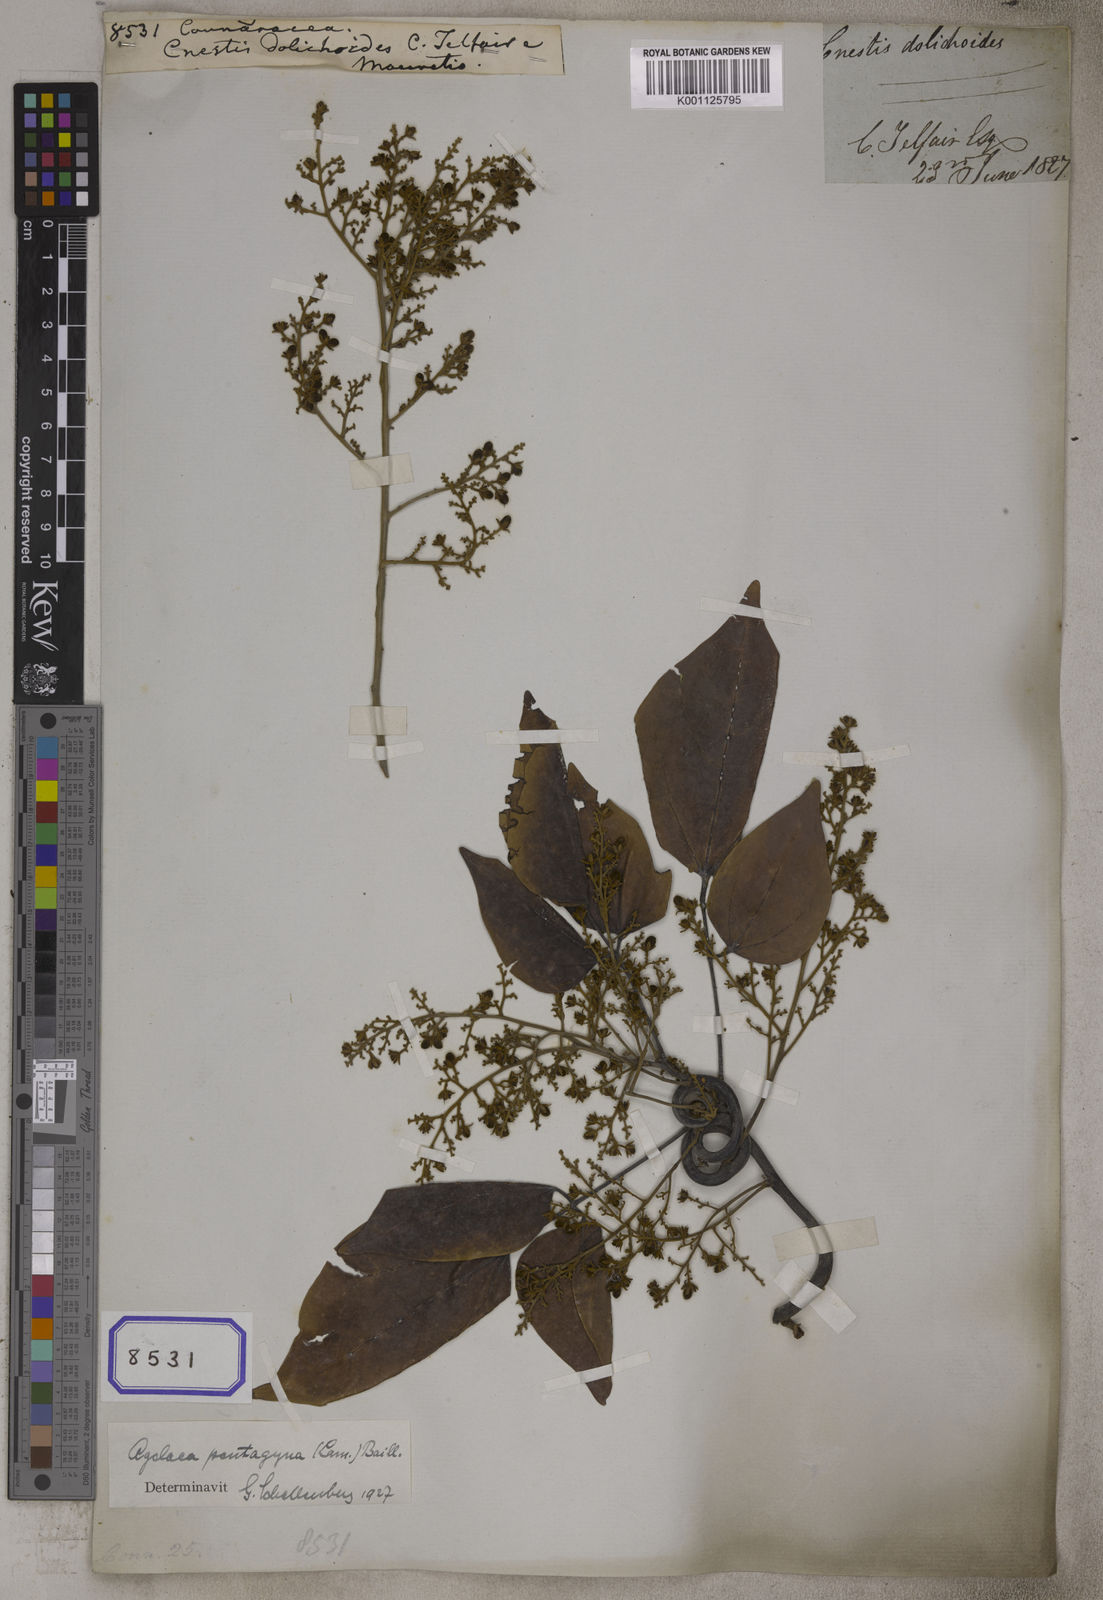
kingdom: Plantae
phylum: Tracheophyta
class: Magnoliopsida
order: Oxalidales
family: Connaraceae
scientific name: Connaraceae
